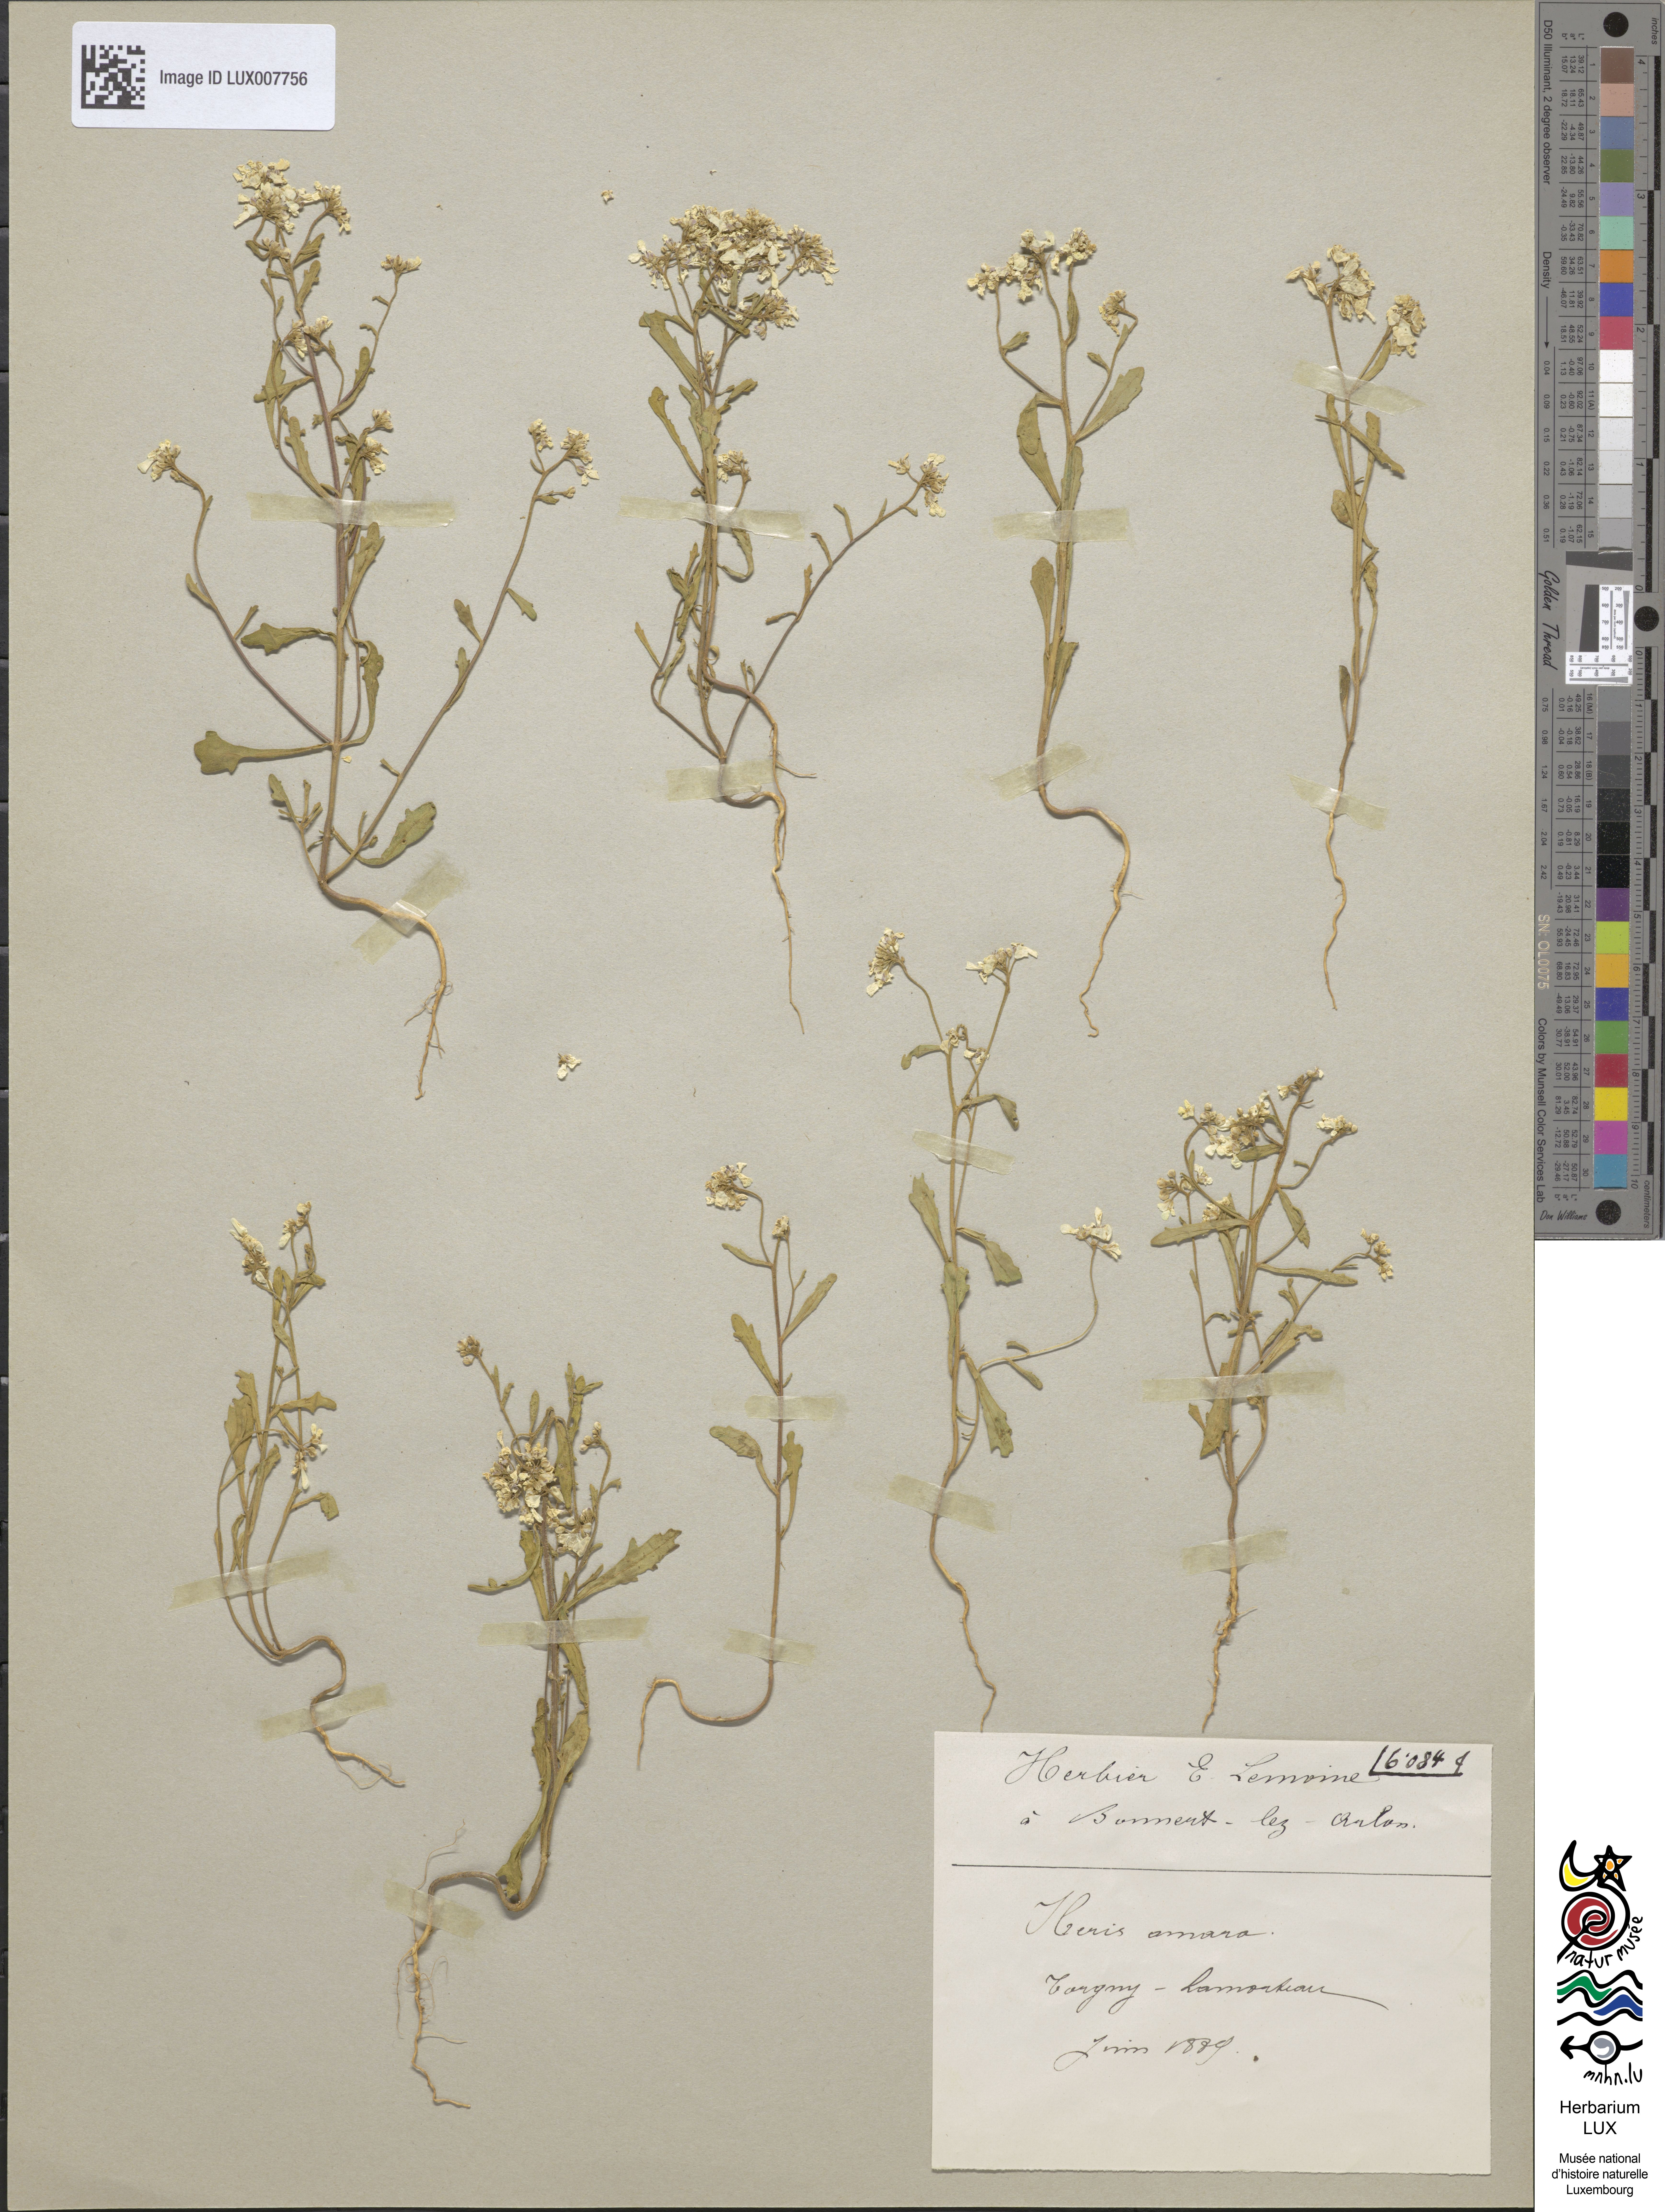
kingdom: Plantae
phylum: Tracheophyta
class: Magnoliopsida
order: Brassicales
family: Brassicaceae
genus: Iberis
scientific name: Iberis amara
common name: Annual candytuft
